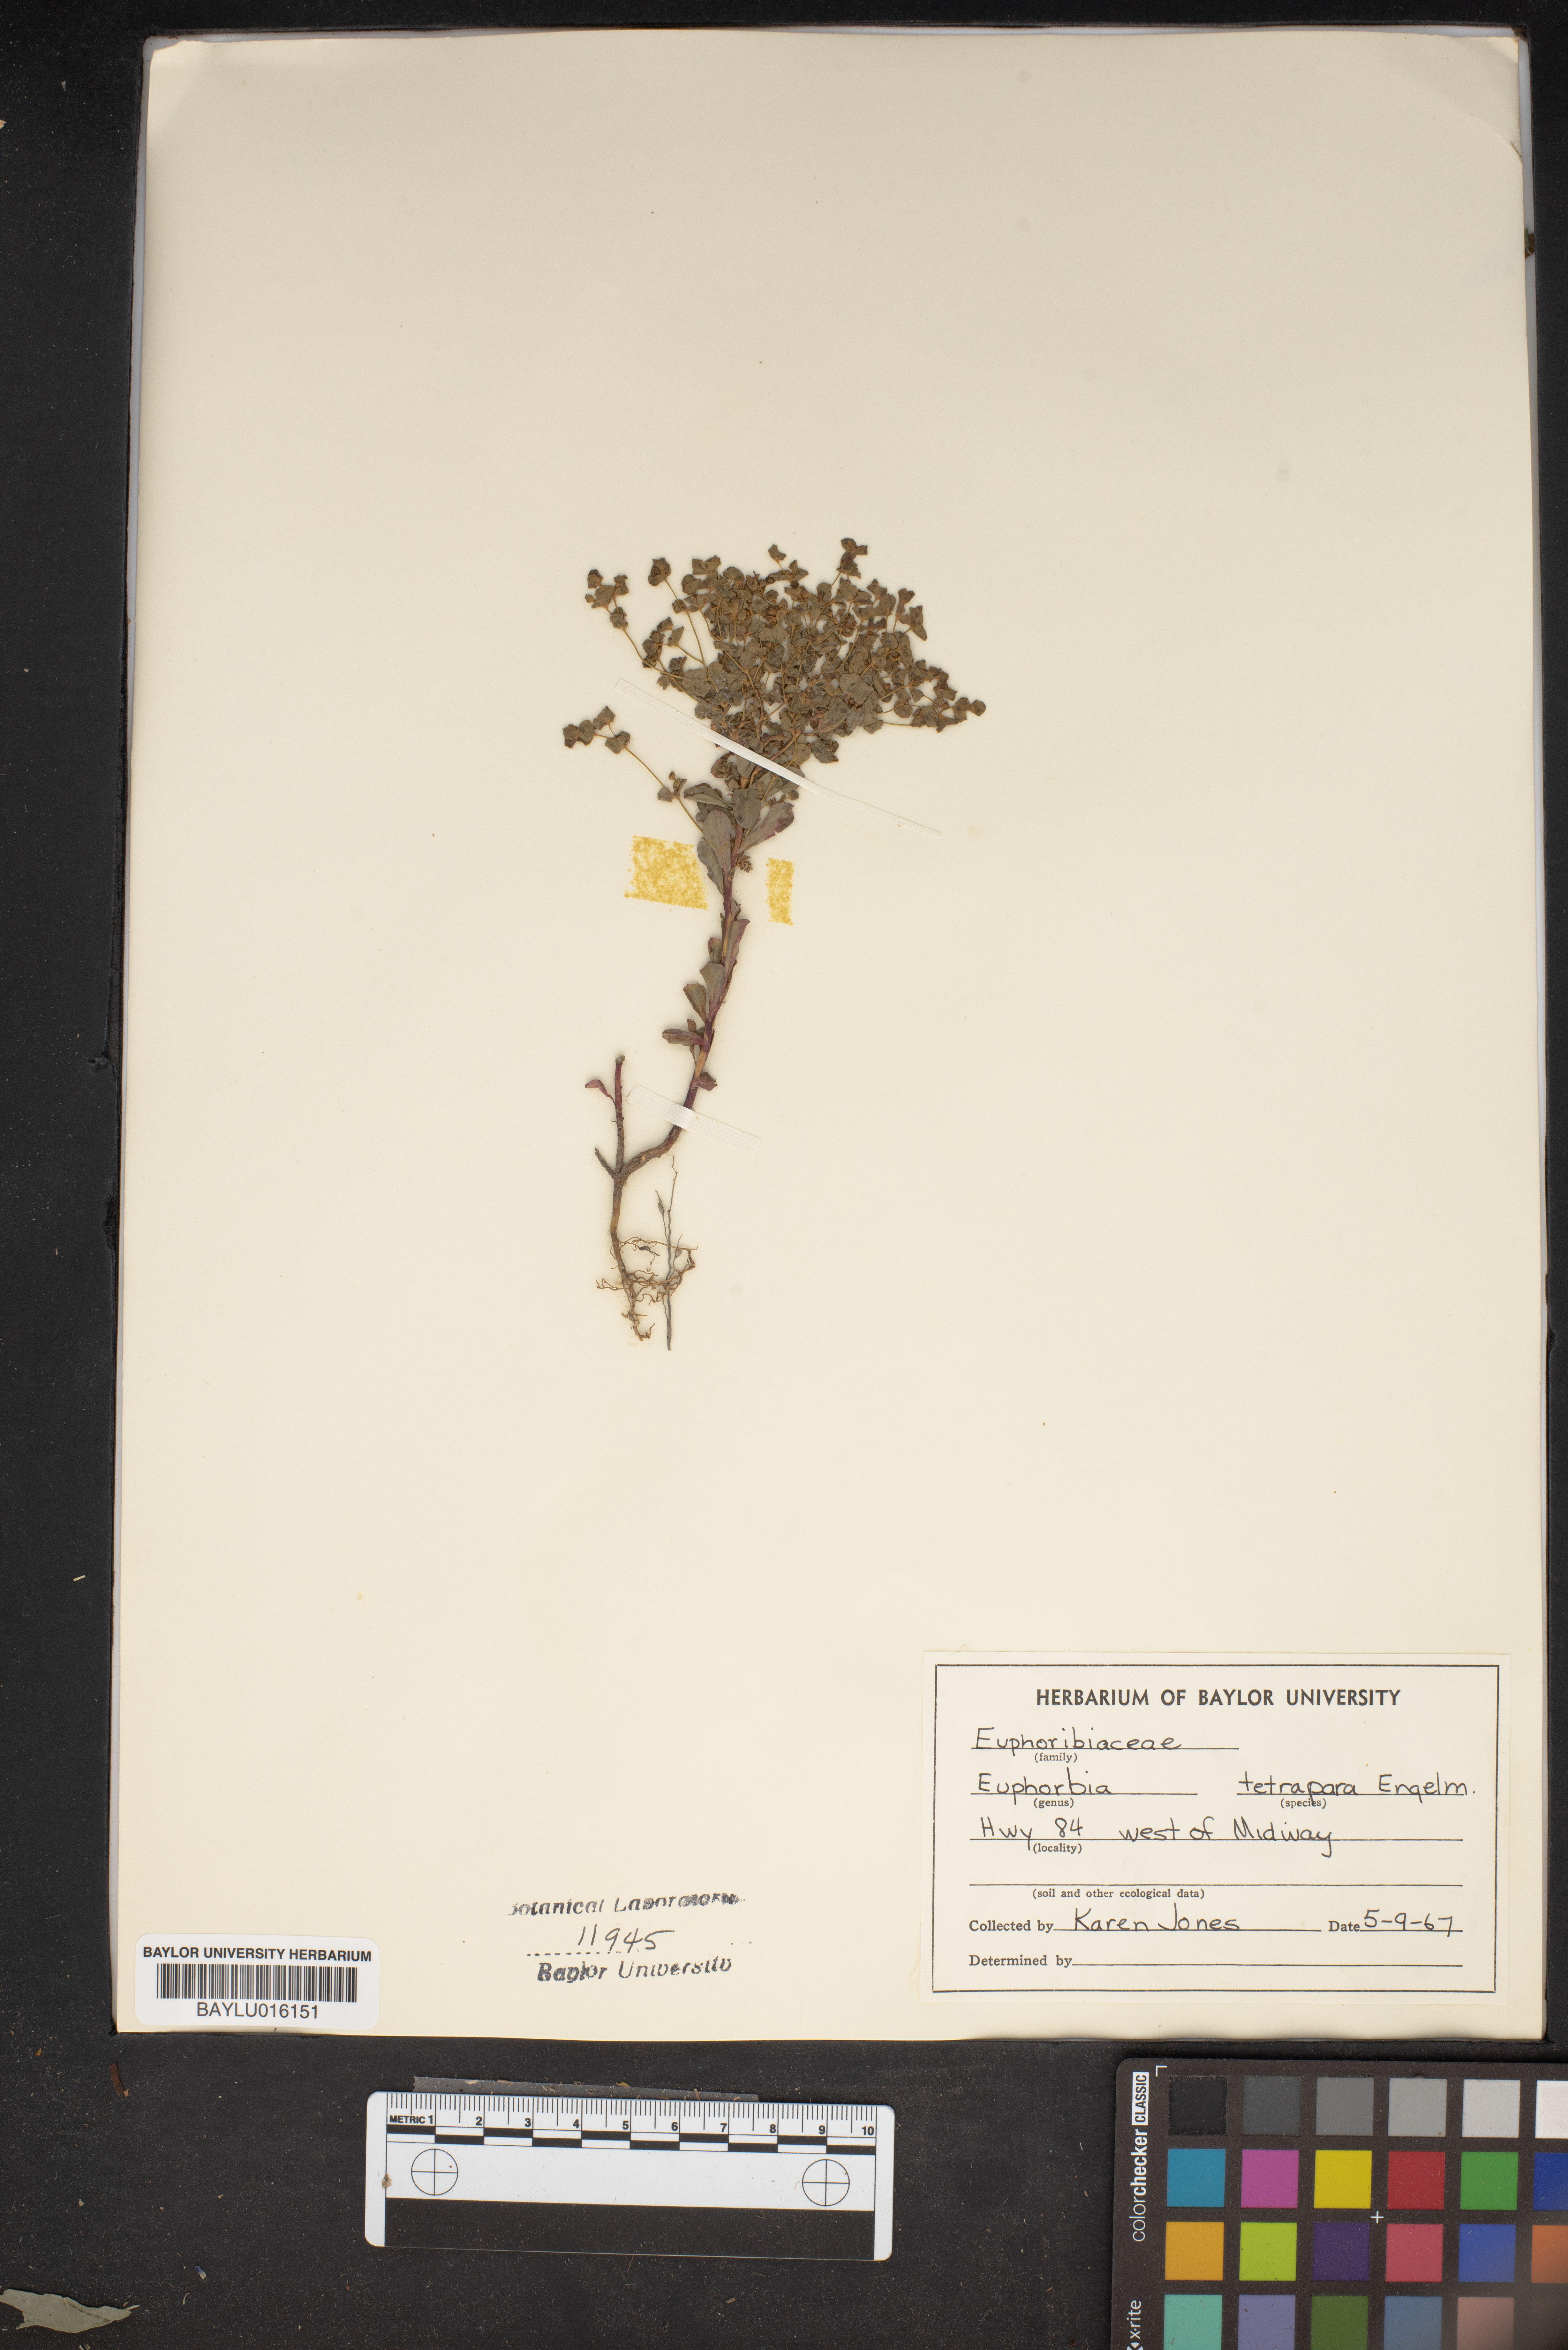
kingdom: Plantae
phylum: Tracheophyta
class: Magnoliopsida
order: Malpighiales
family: Euphorbiaceae
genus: Euphorbia
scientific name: Euphorbia tetrapora
